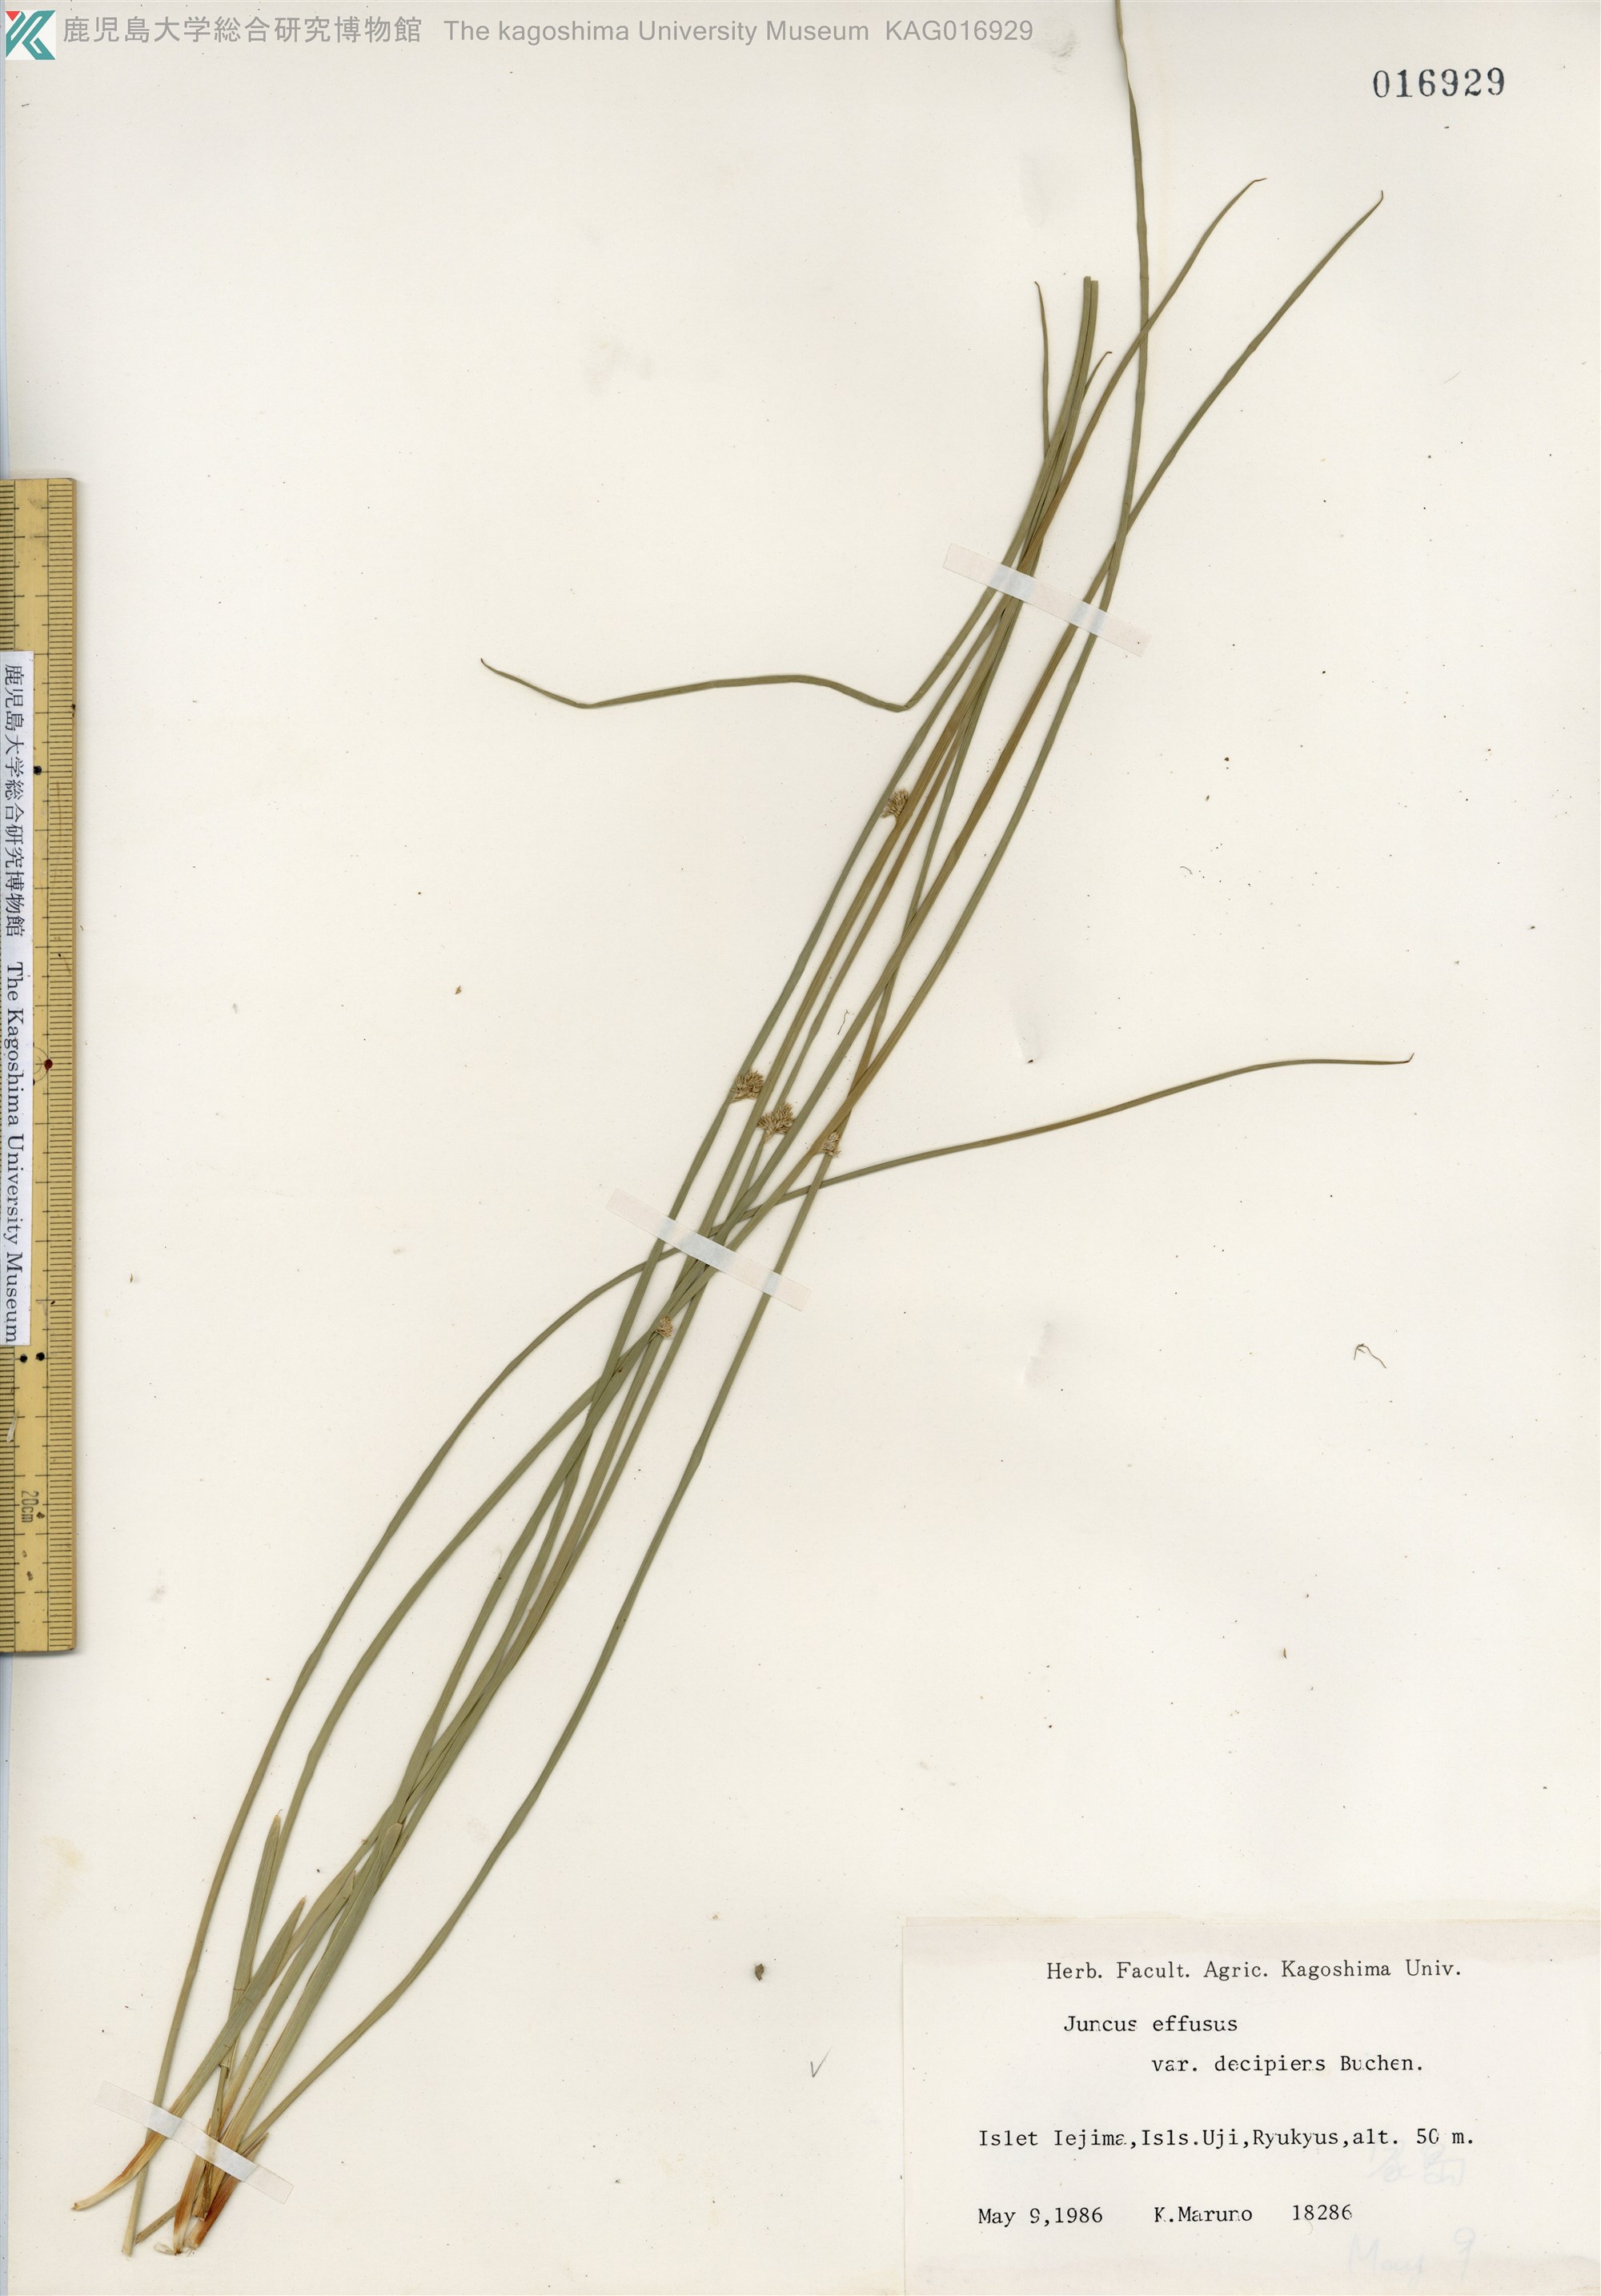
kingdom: Plantae
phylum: Tracheophyta
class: Liliopsida
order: Poales
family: Juncaceae
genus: Juncus
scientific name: Juncus decipiens
